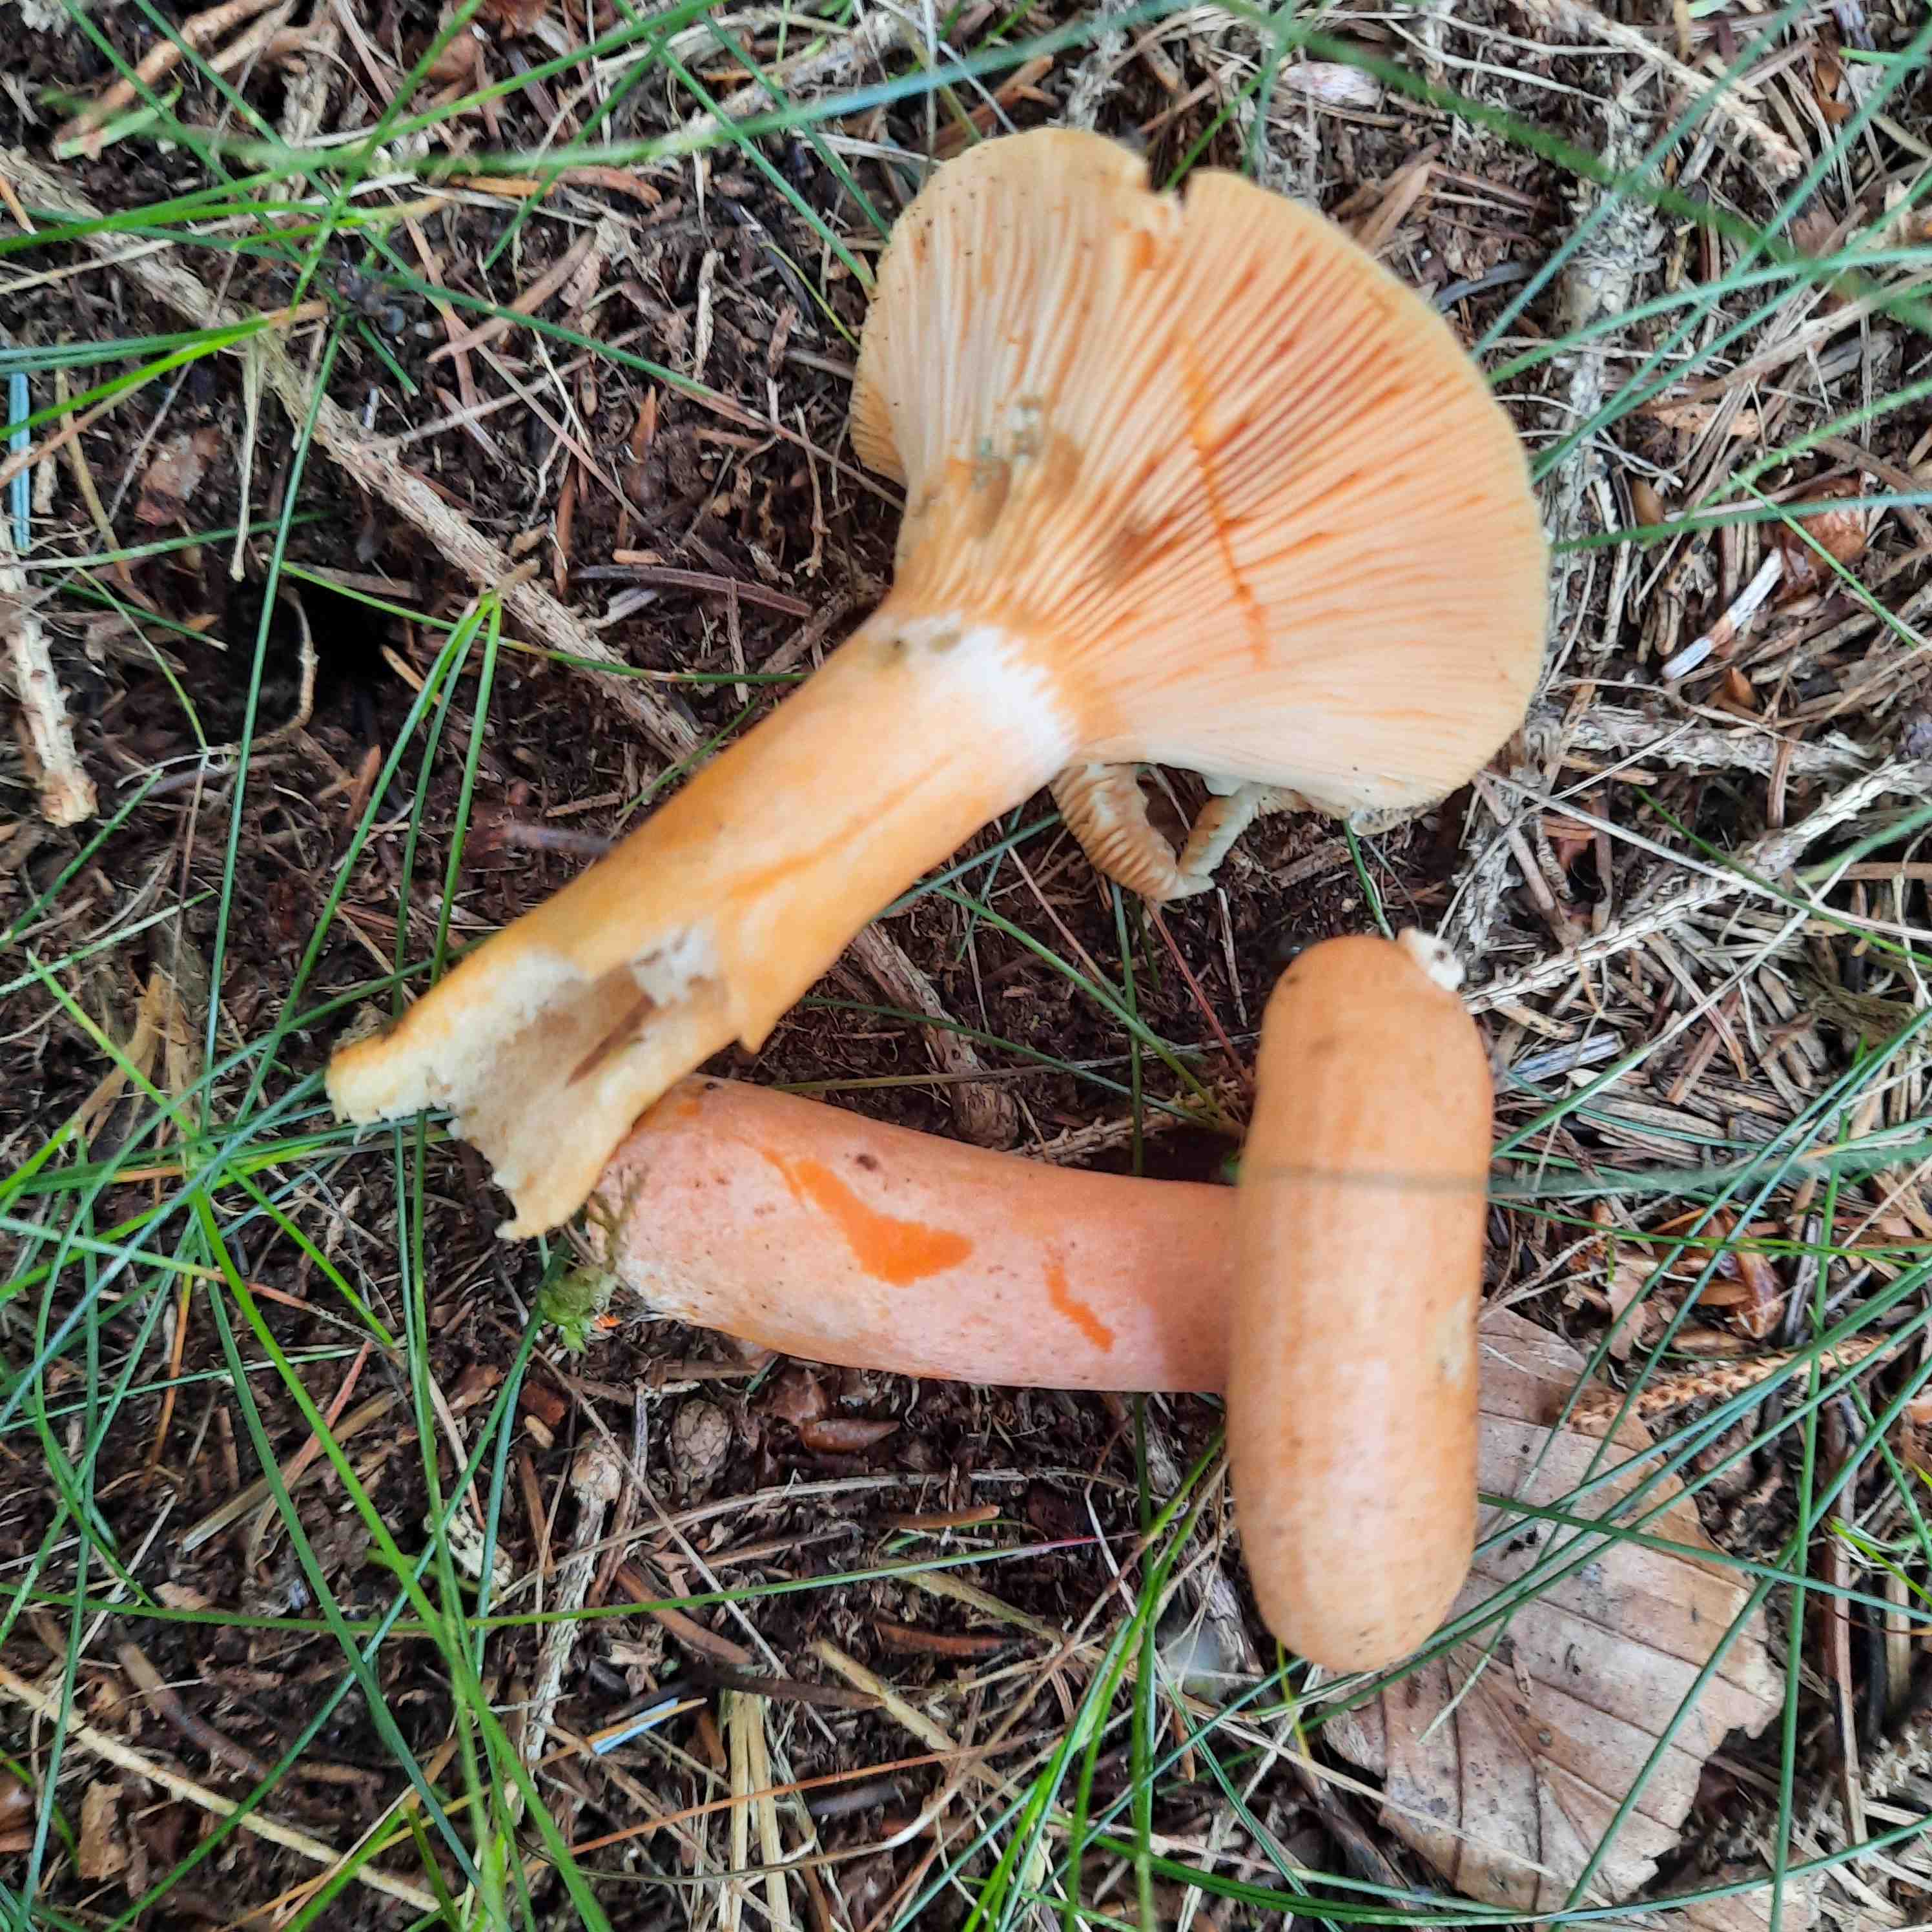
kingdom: Fungi
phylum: Basidiomycota
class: Agaricomycetes
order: Russulales
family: Russulaceae
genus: Lactarius
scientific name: Lactarius deterrimus
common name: gran-mælkehat
